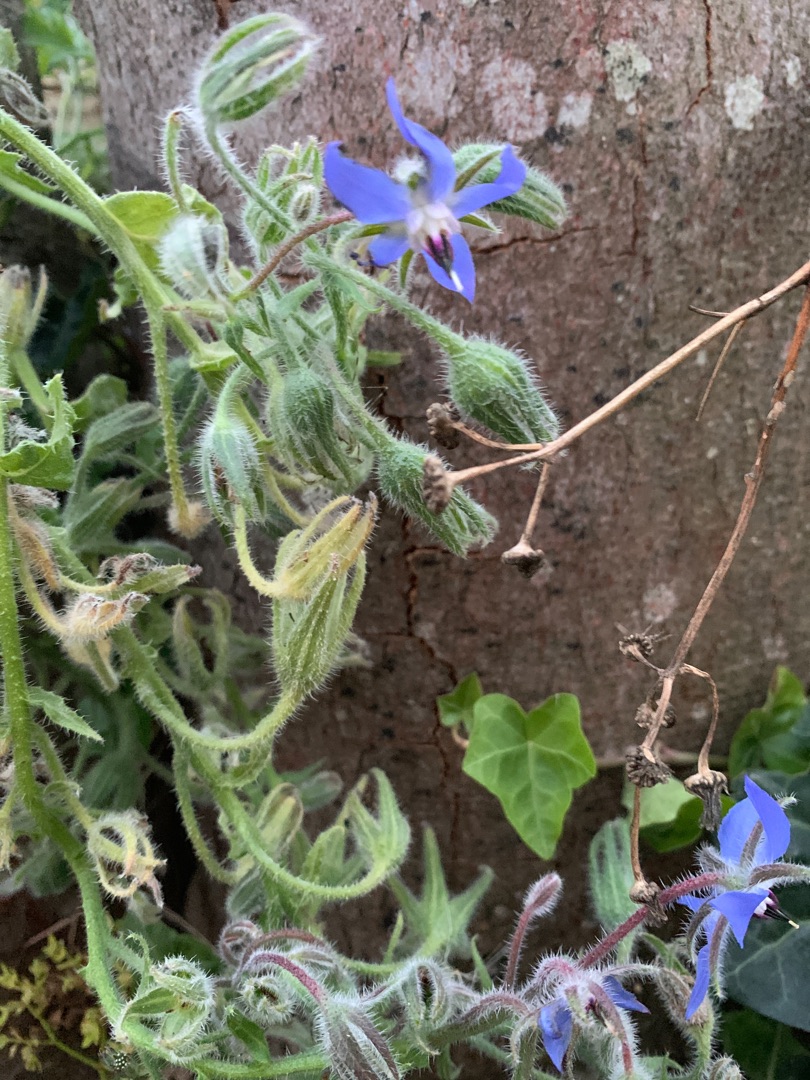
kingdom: Plantae
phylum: Tracheophyta
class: Magnoliopsida
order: Boraginales
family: Boraginaceae
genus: Borago
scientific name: Borago officinalis
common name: Hjulkrone
